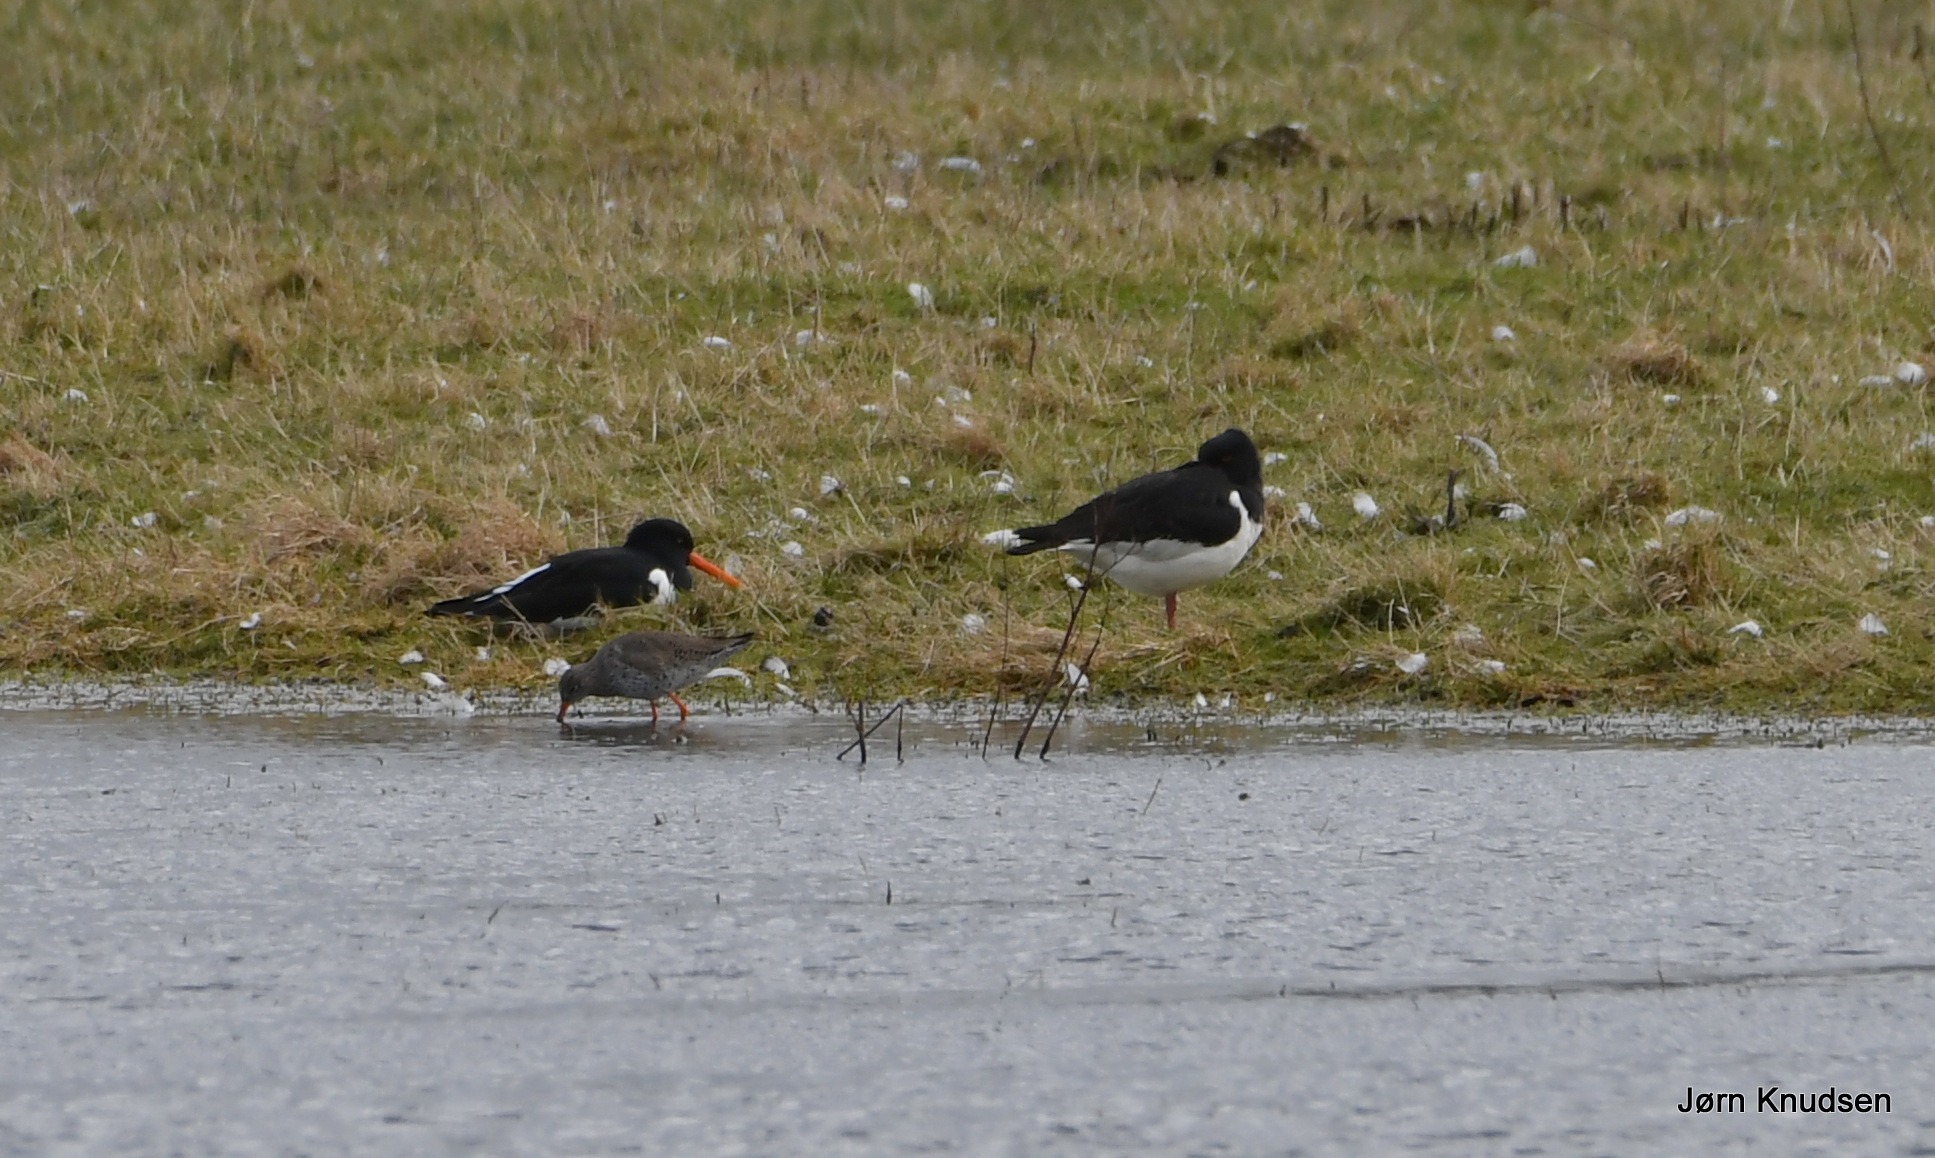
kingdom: Animalia
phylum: Chordata
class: Aves
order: Charadriiformes
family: Haematopodidae
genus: Haematopus
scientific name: Haematopus ostralegus
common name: Strandskade
